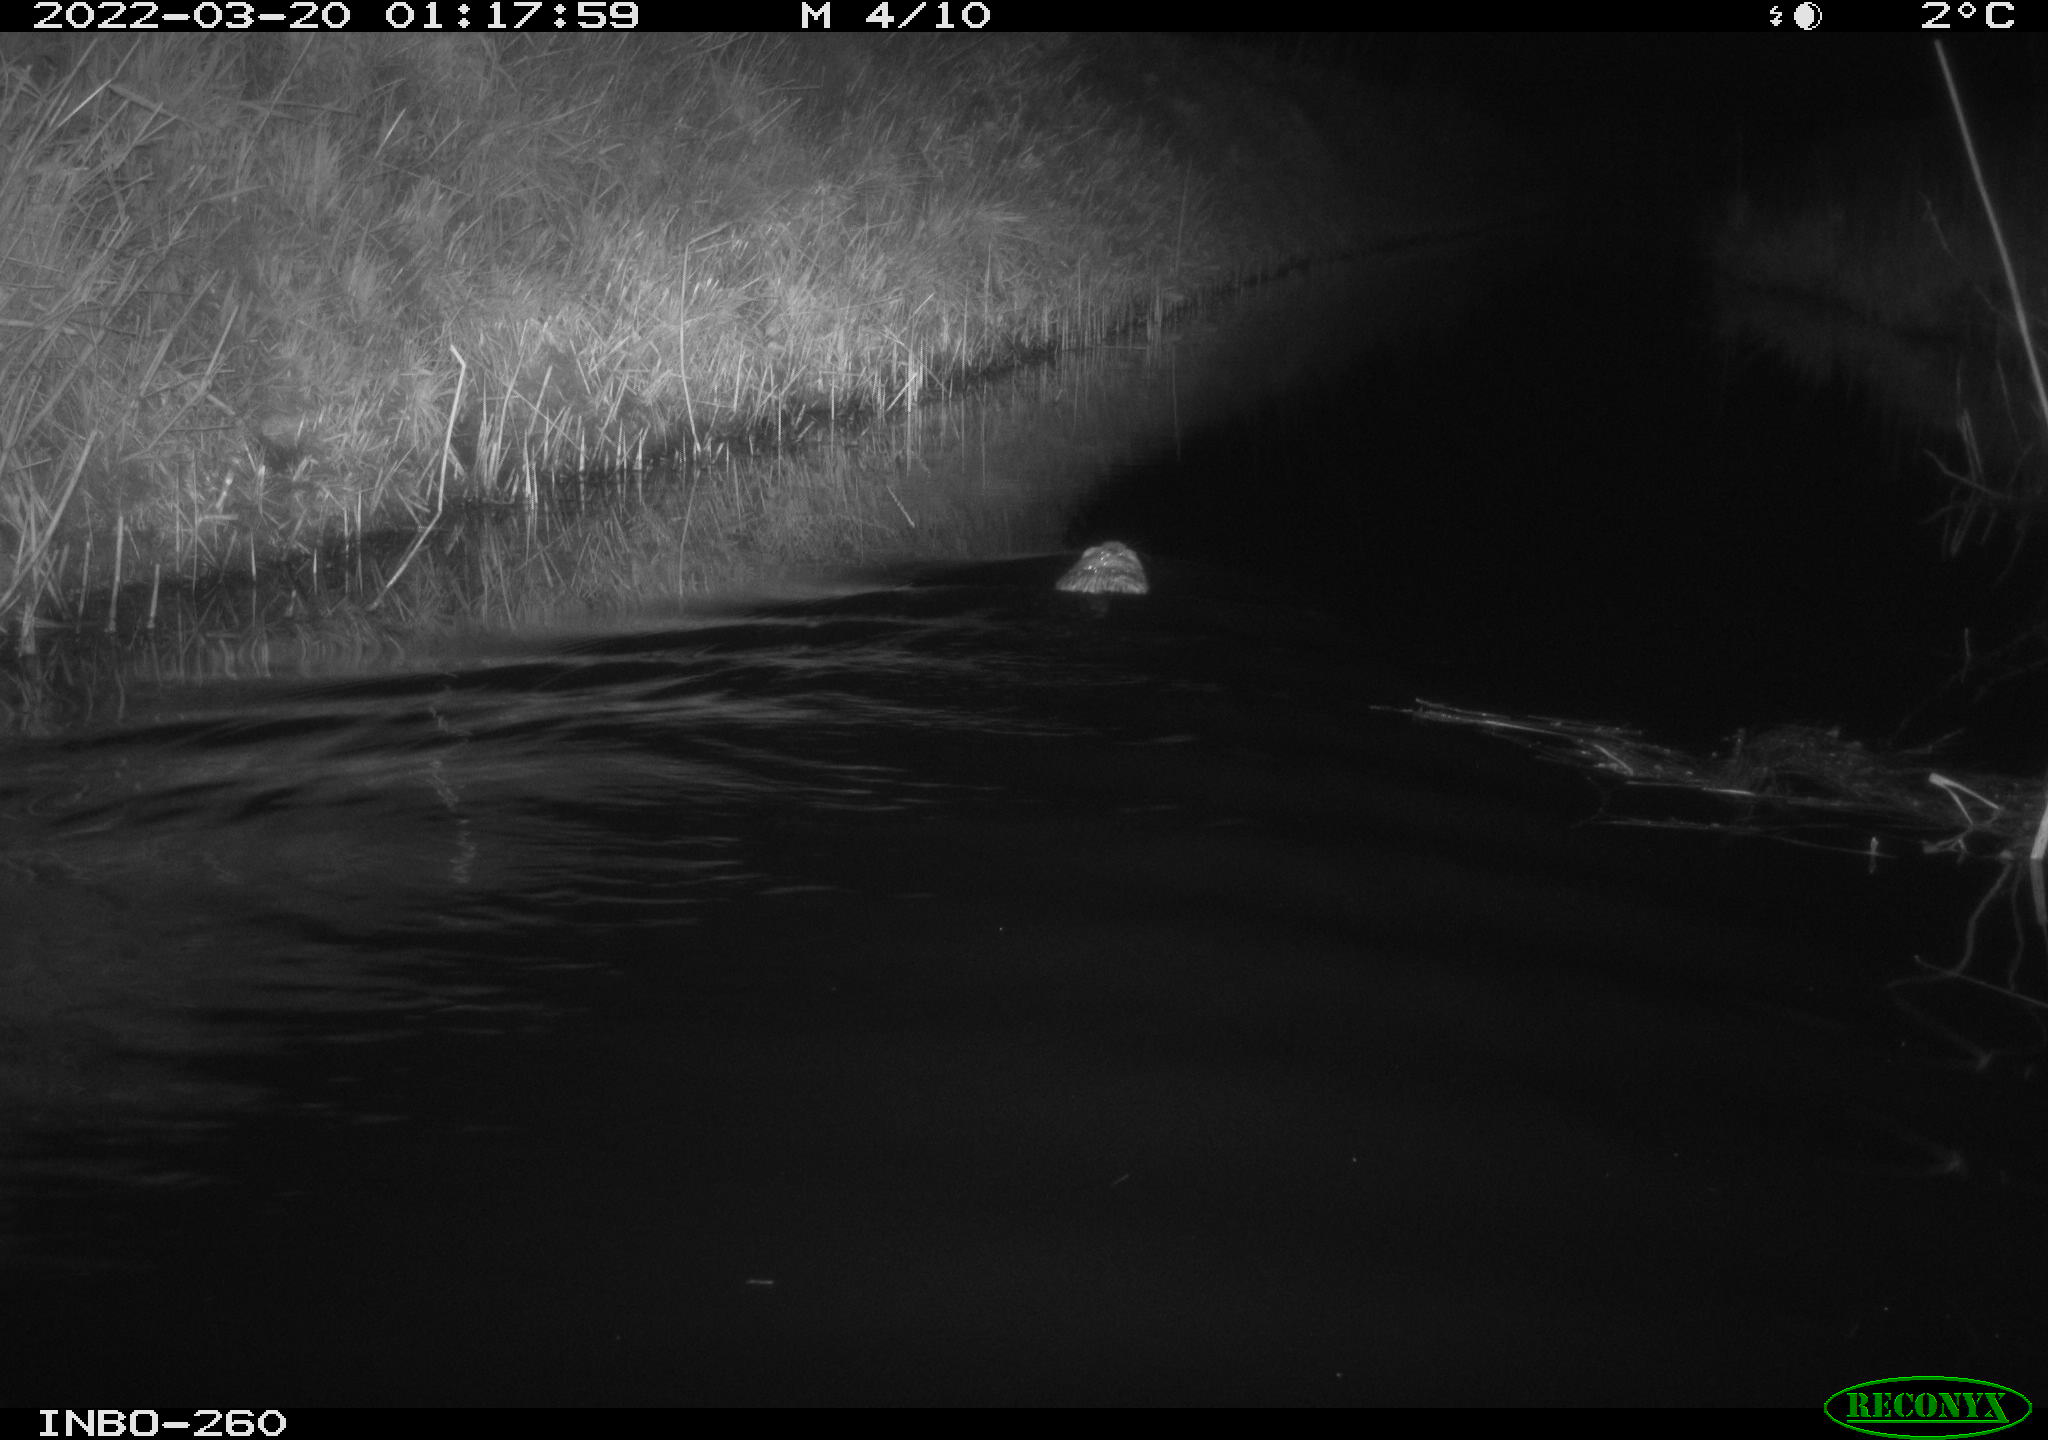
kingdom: Animalia
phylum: Chordata
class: Mammalia
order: Rodentia
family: Cricetidae
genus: Ondatra
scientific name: Ondatra zibethicus
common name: Muskrat
